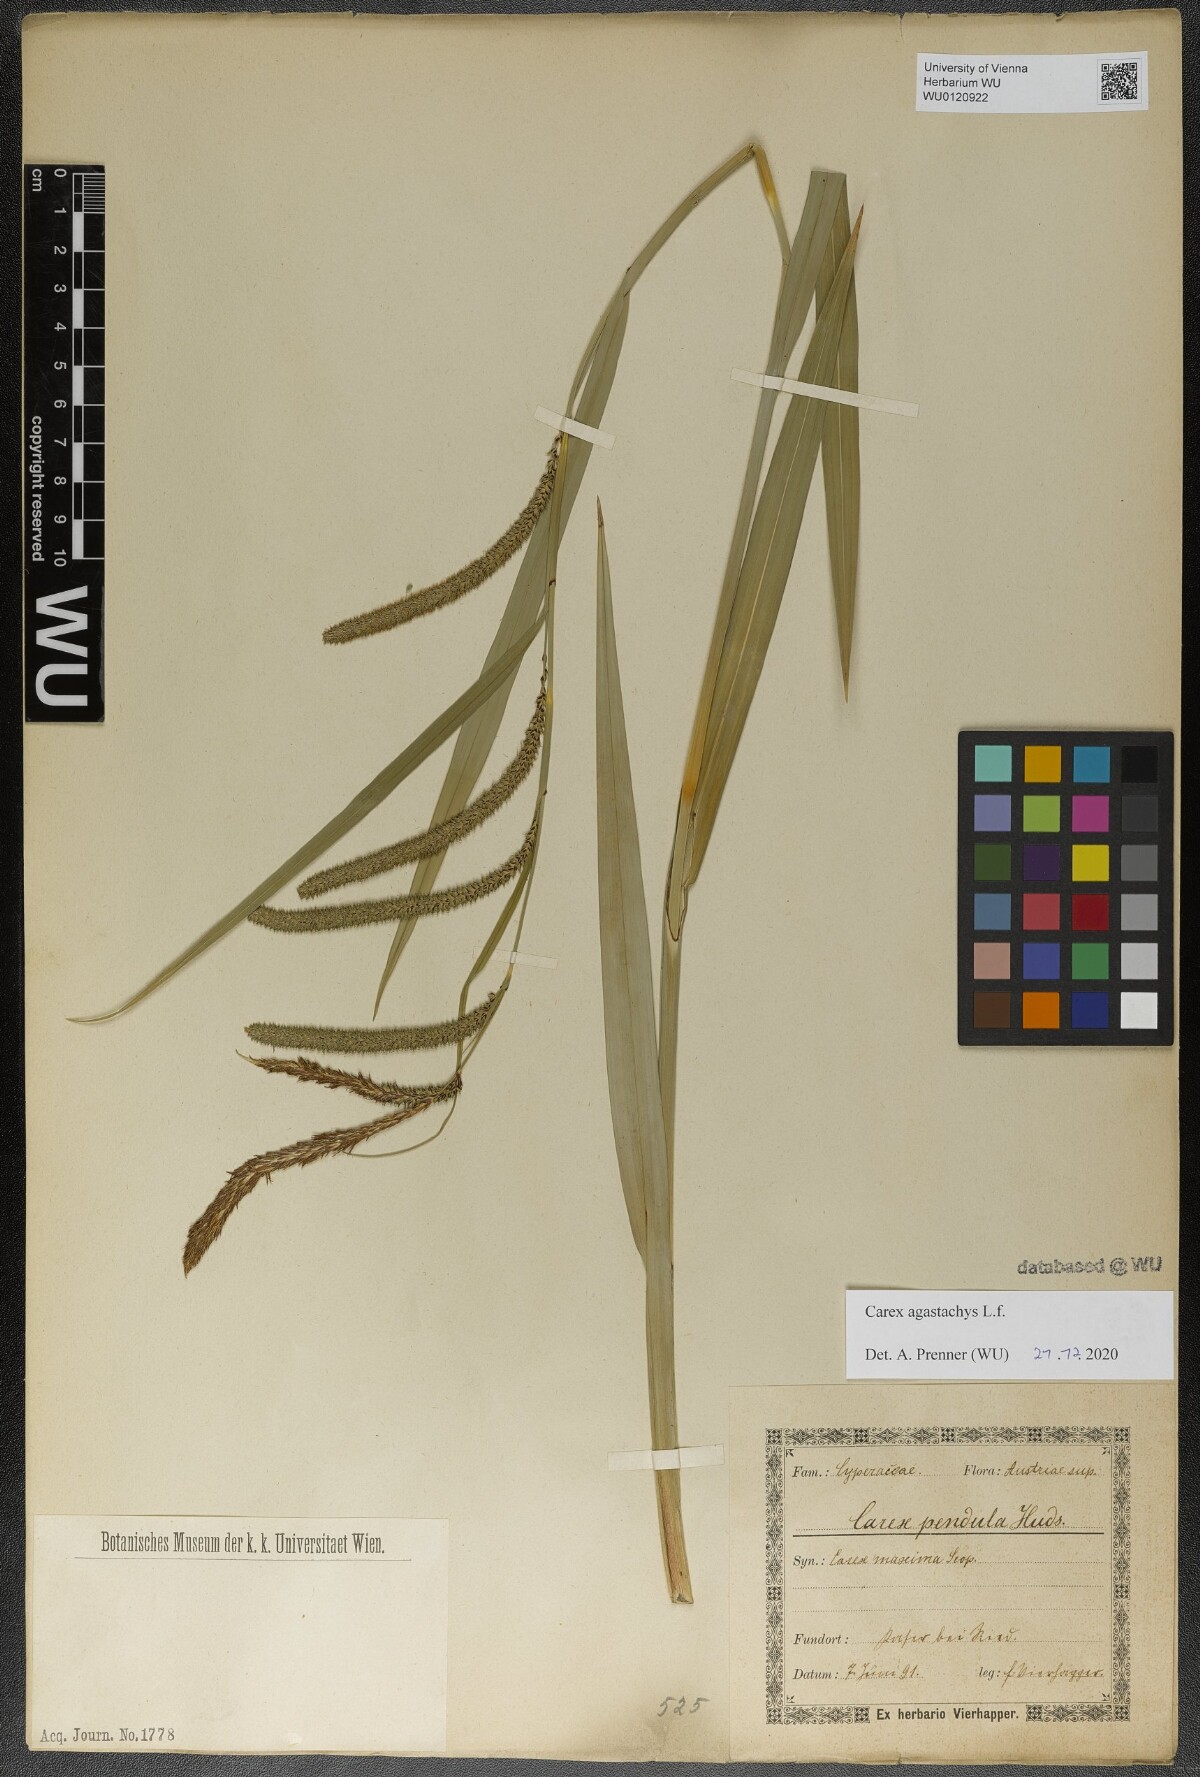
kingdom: Plantae
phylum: Tracheophyta
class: Liliopsida
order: Poales
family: Cyperaceae
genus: Carex
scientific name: Carex agastachys
